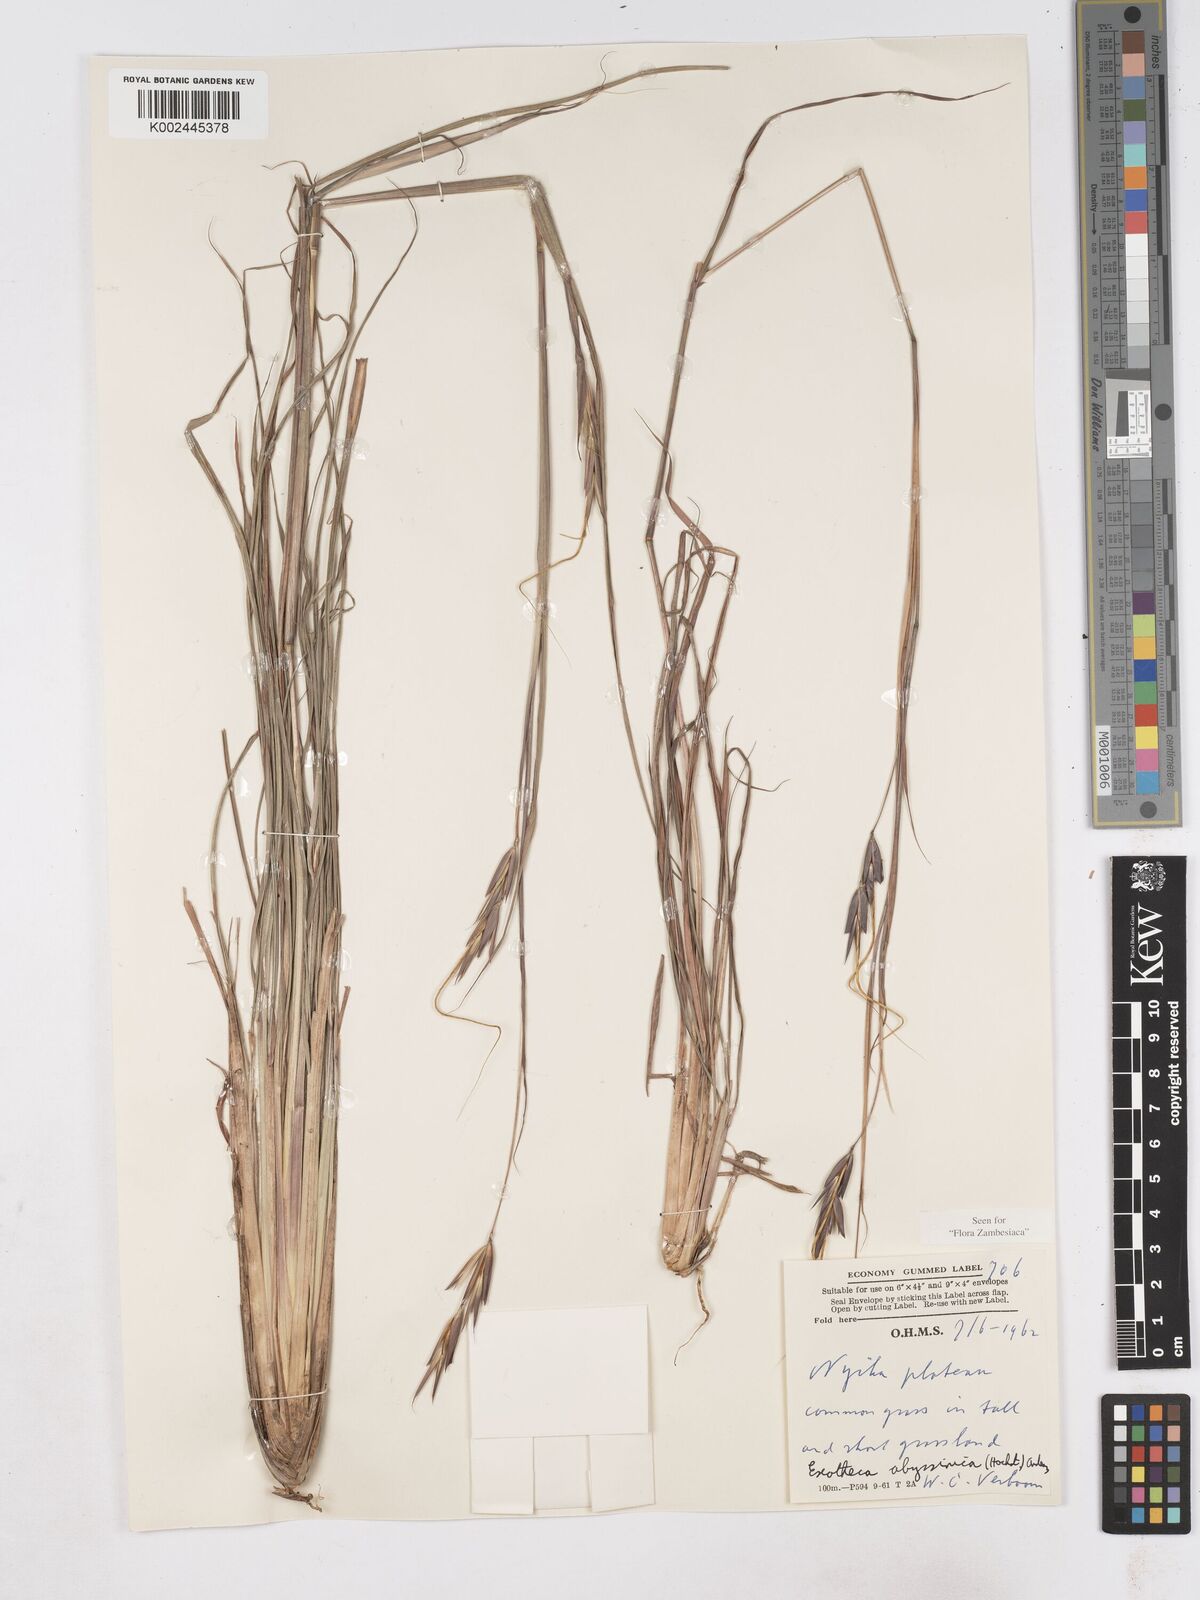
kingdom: Plantae
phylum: Tracheophyta
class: Liliopsida
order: Poales
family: Poaceae
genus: Exotheca
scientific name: Exotheca abyssinica
